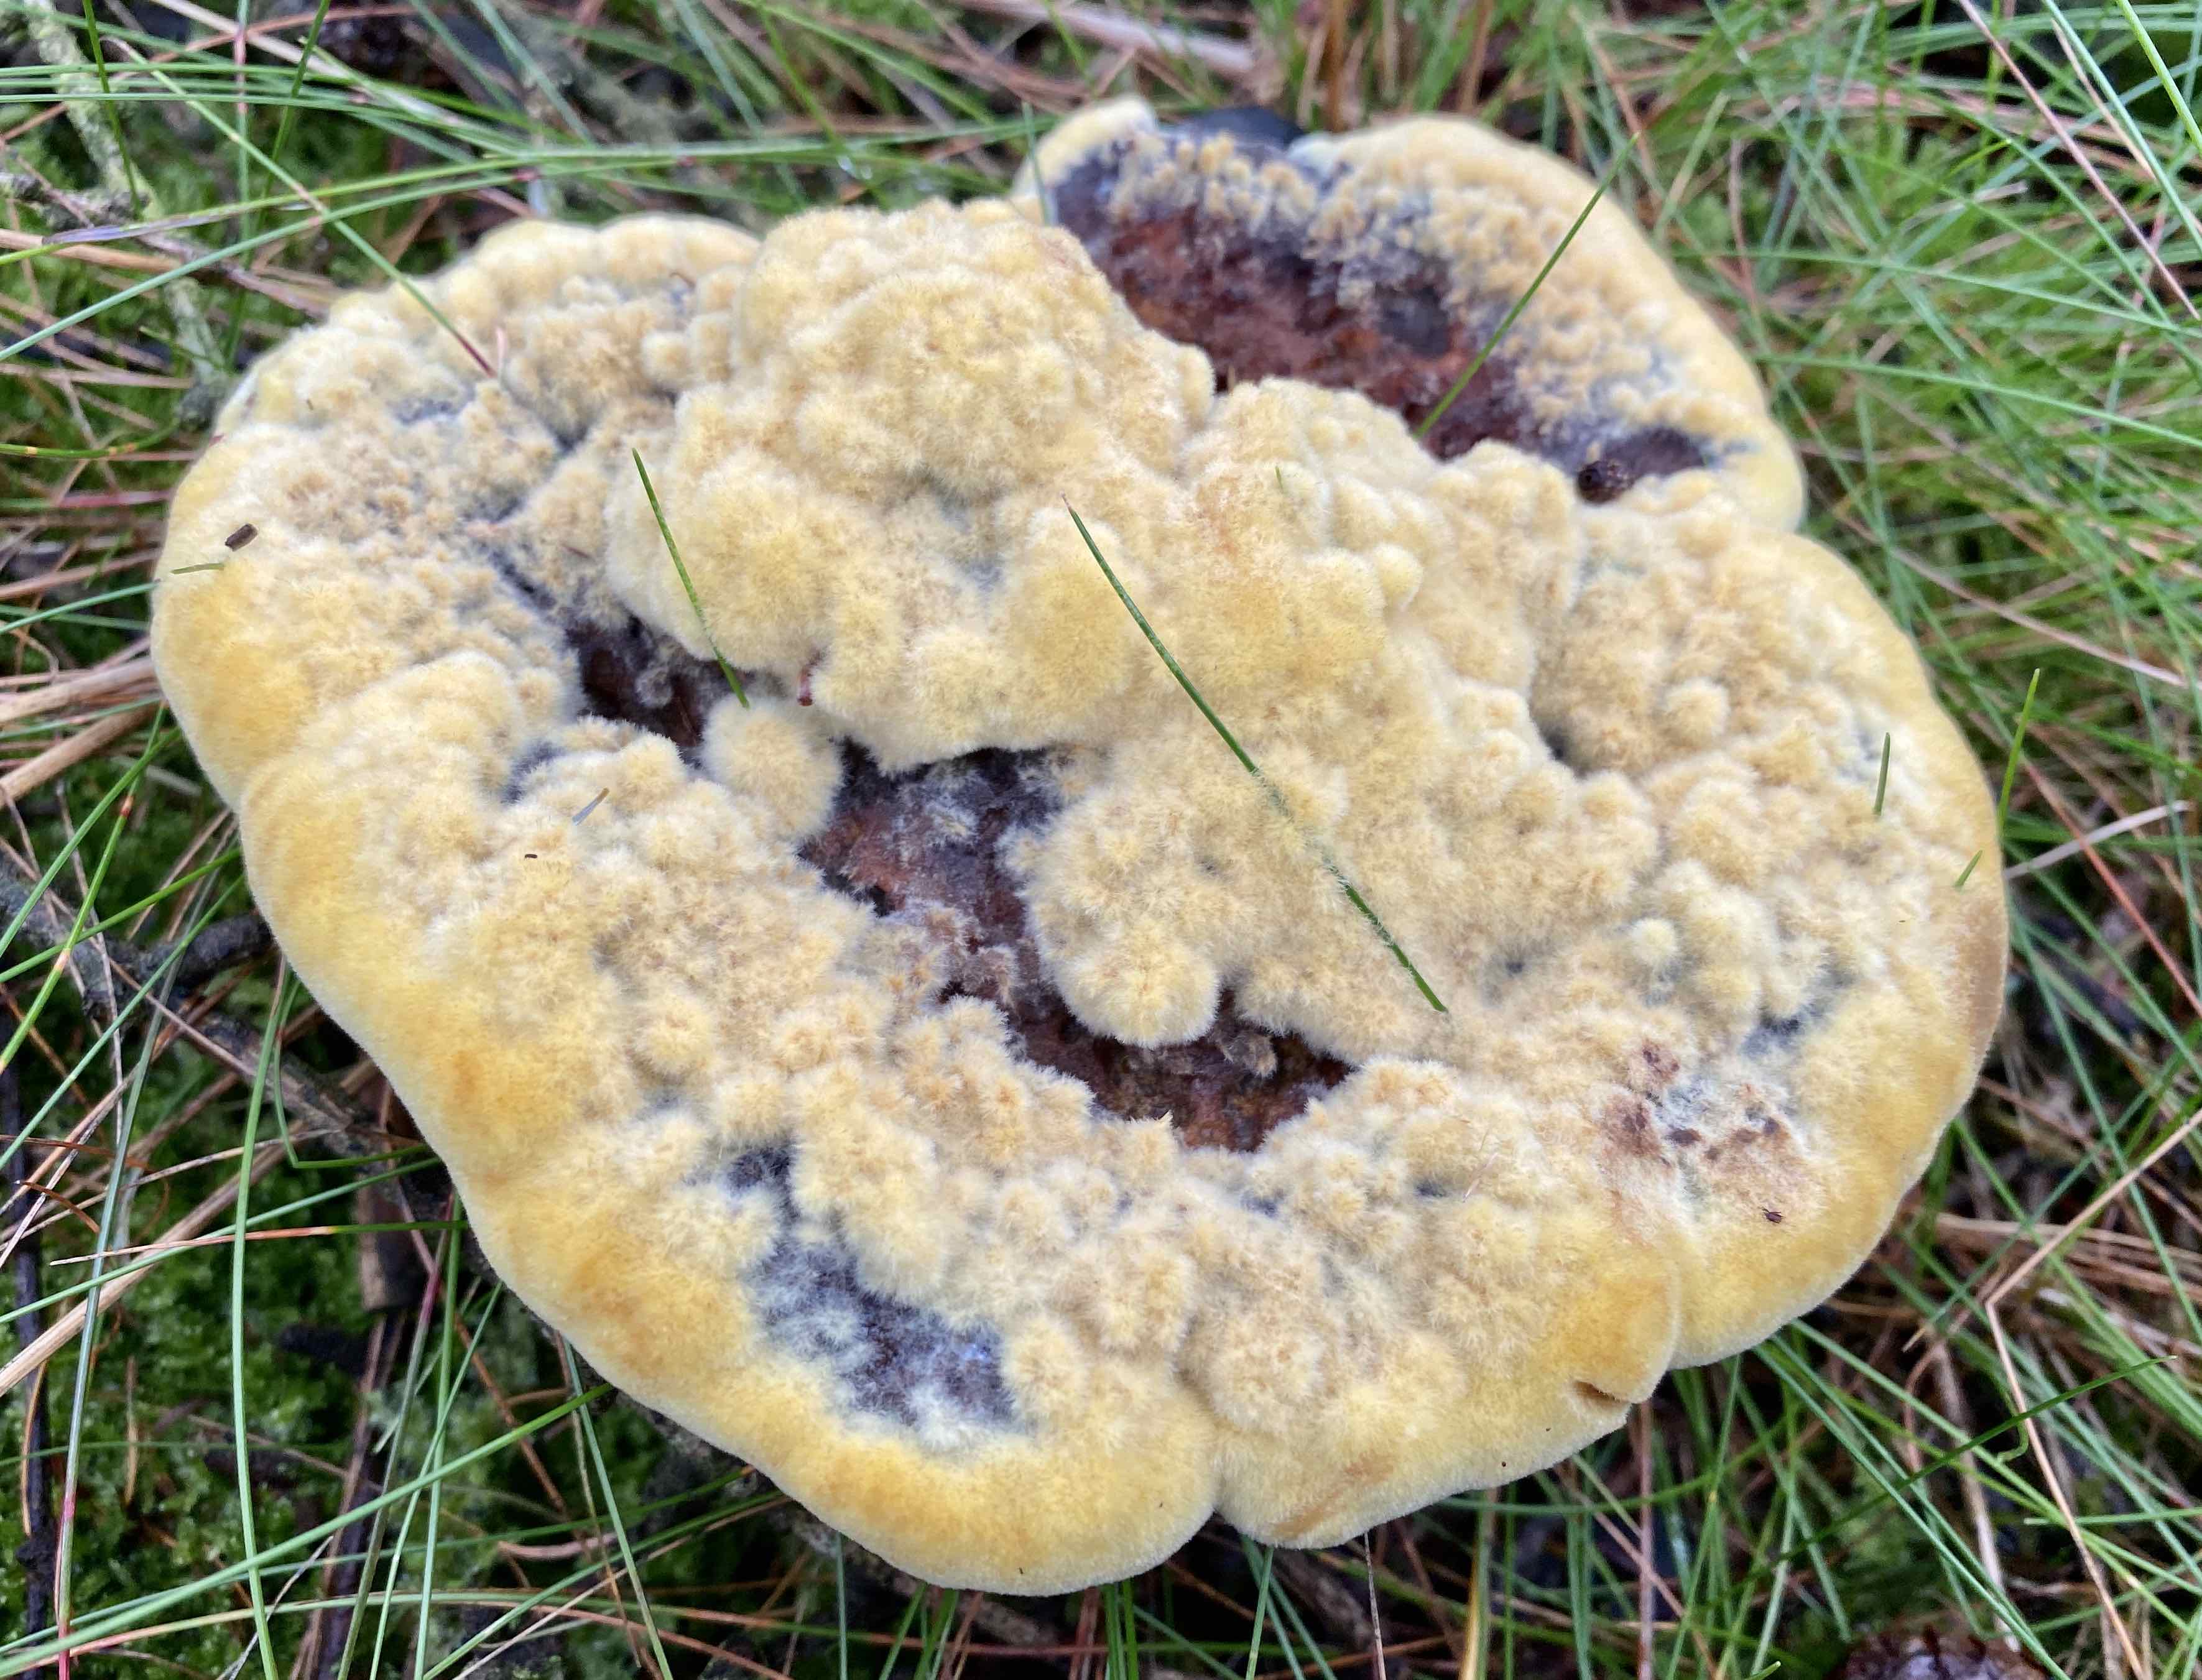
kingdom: Fungi
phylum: Basidiomycota
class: Agaricomycetes
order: Polyporales
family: Laetiporaceae
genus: Phaeolus
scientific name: Phaeolus schweinitzii
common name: brunporesvamp
